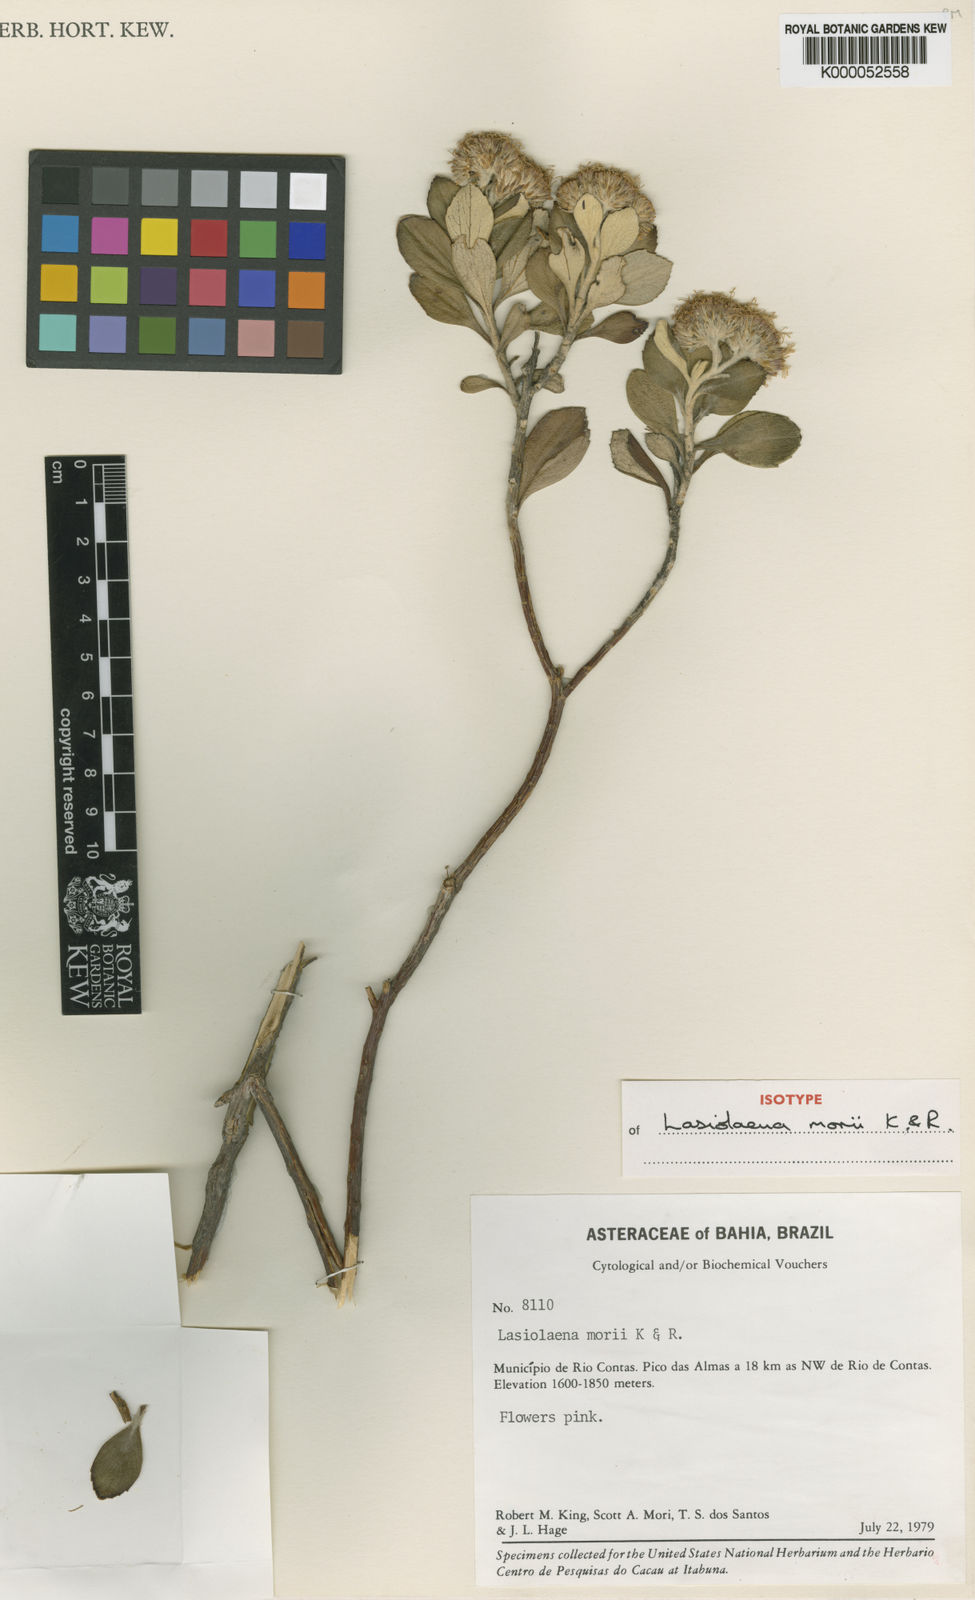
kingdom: Plantae
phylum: Tracheophyta
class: Magnoliopsida
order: Asterales
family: Asteraceae
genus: Lasiolaena
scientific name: Lasiolaena morii
